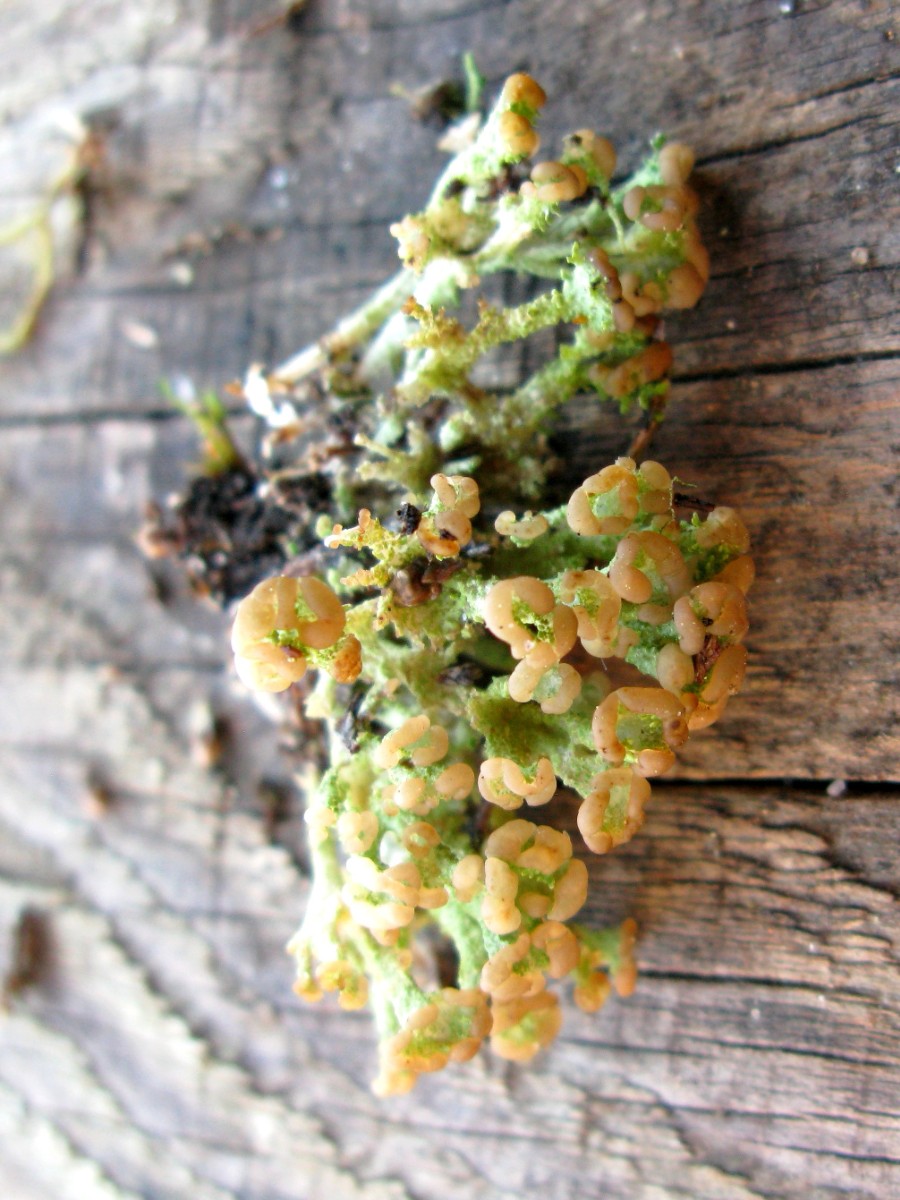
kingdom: Fungi
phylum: Ascomycota
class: Lecanoromycetes
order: Lecanorales
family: Cladoniaceae
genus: Cladonia
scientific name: Cladonia ramulosa
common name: kliddet bægerlav
